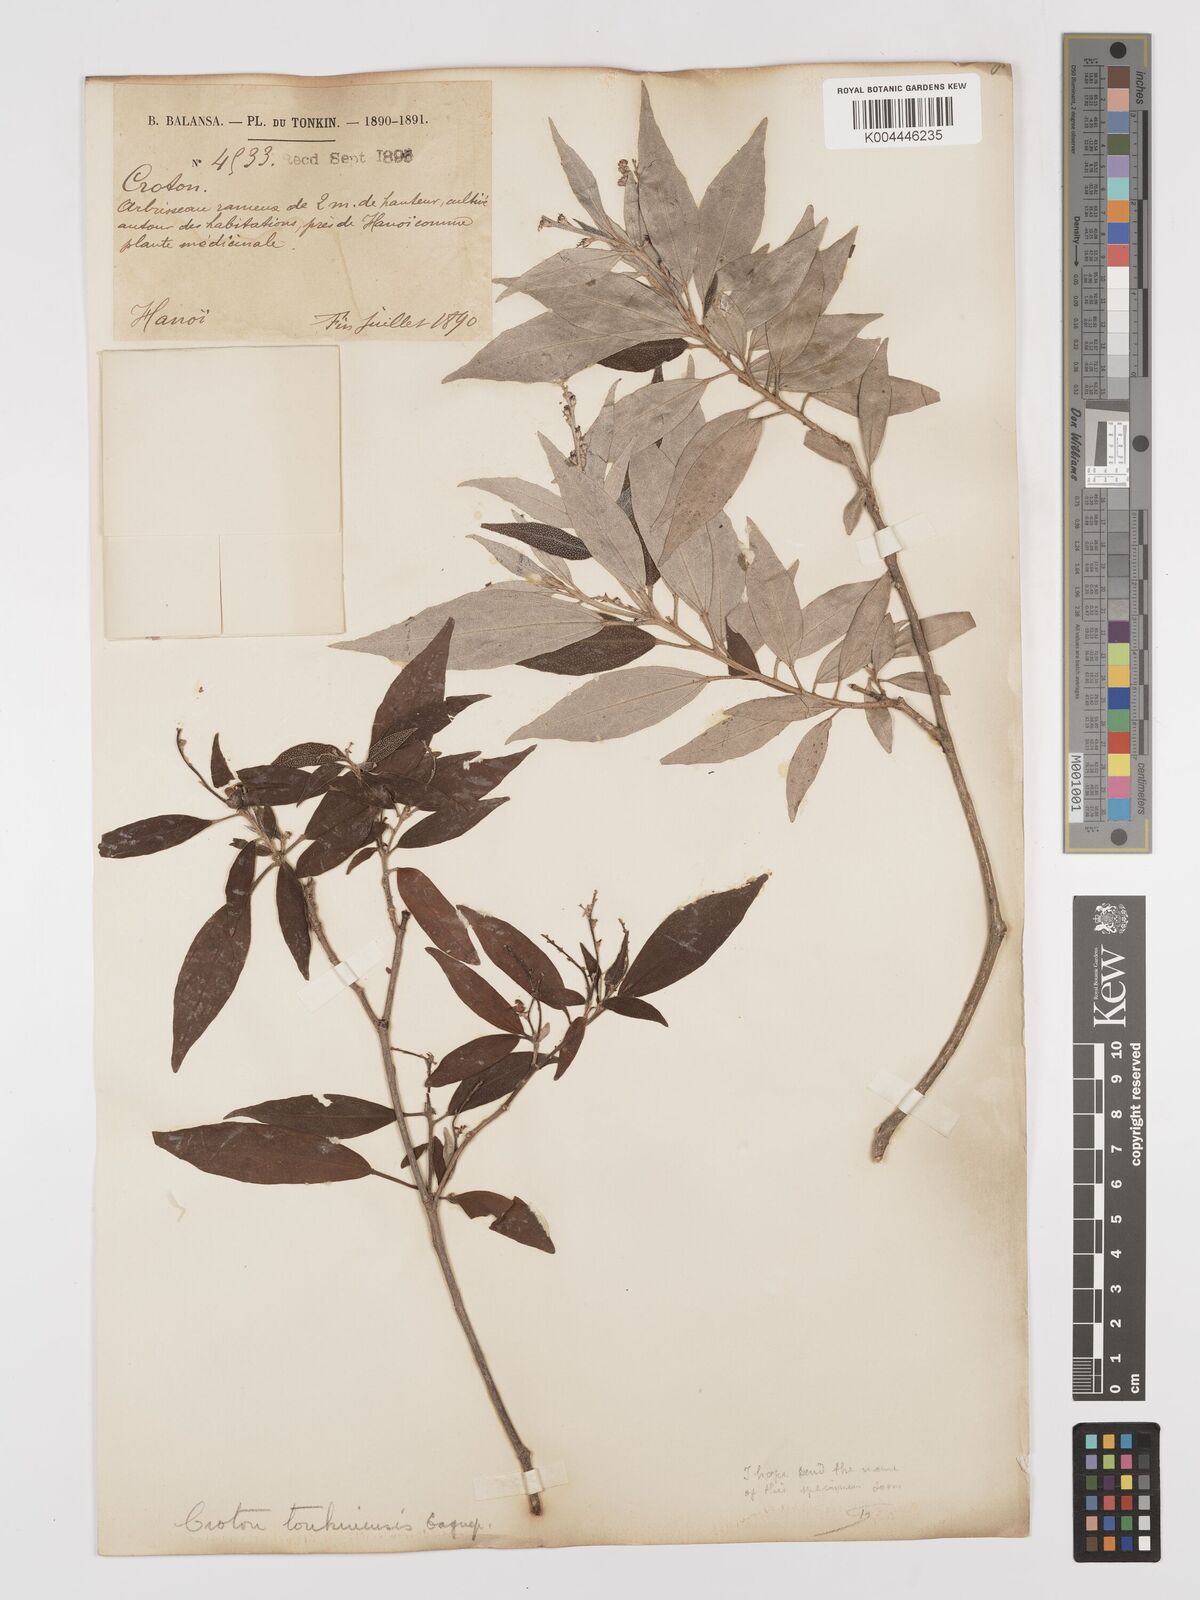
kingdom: Plantae
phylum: Tracheophyta
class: Magnoliopsida
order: Malpighiales
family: Euphorbiaceae
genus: Croton
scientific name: Croton kongensis
